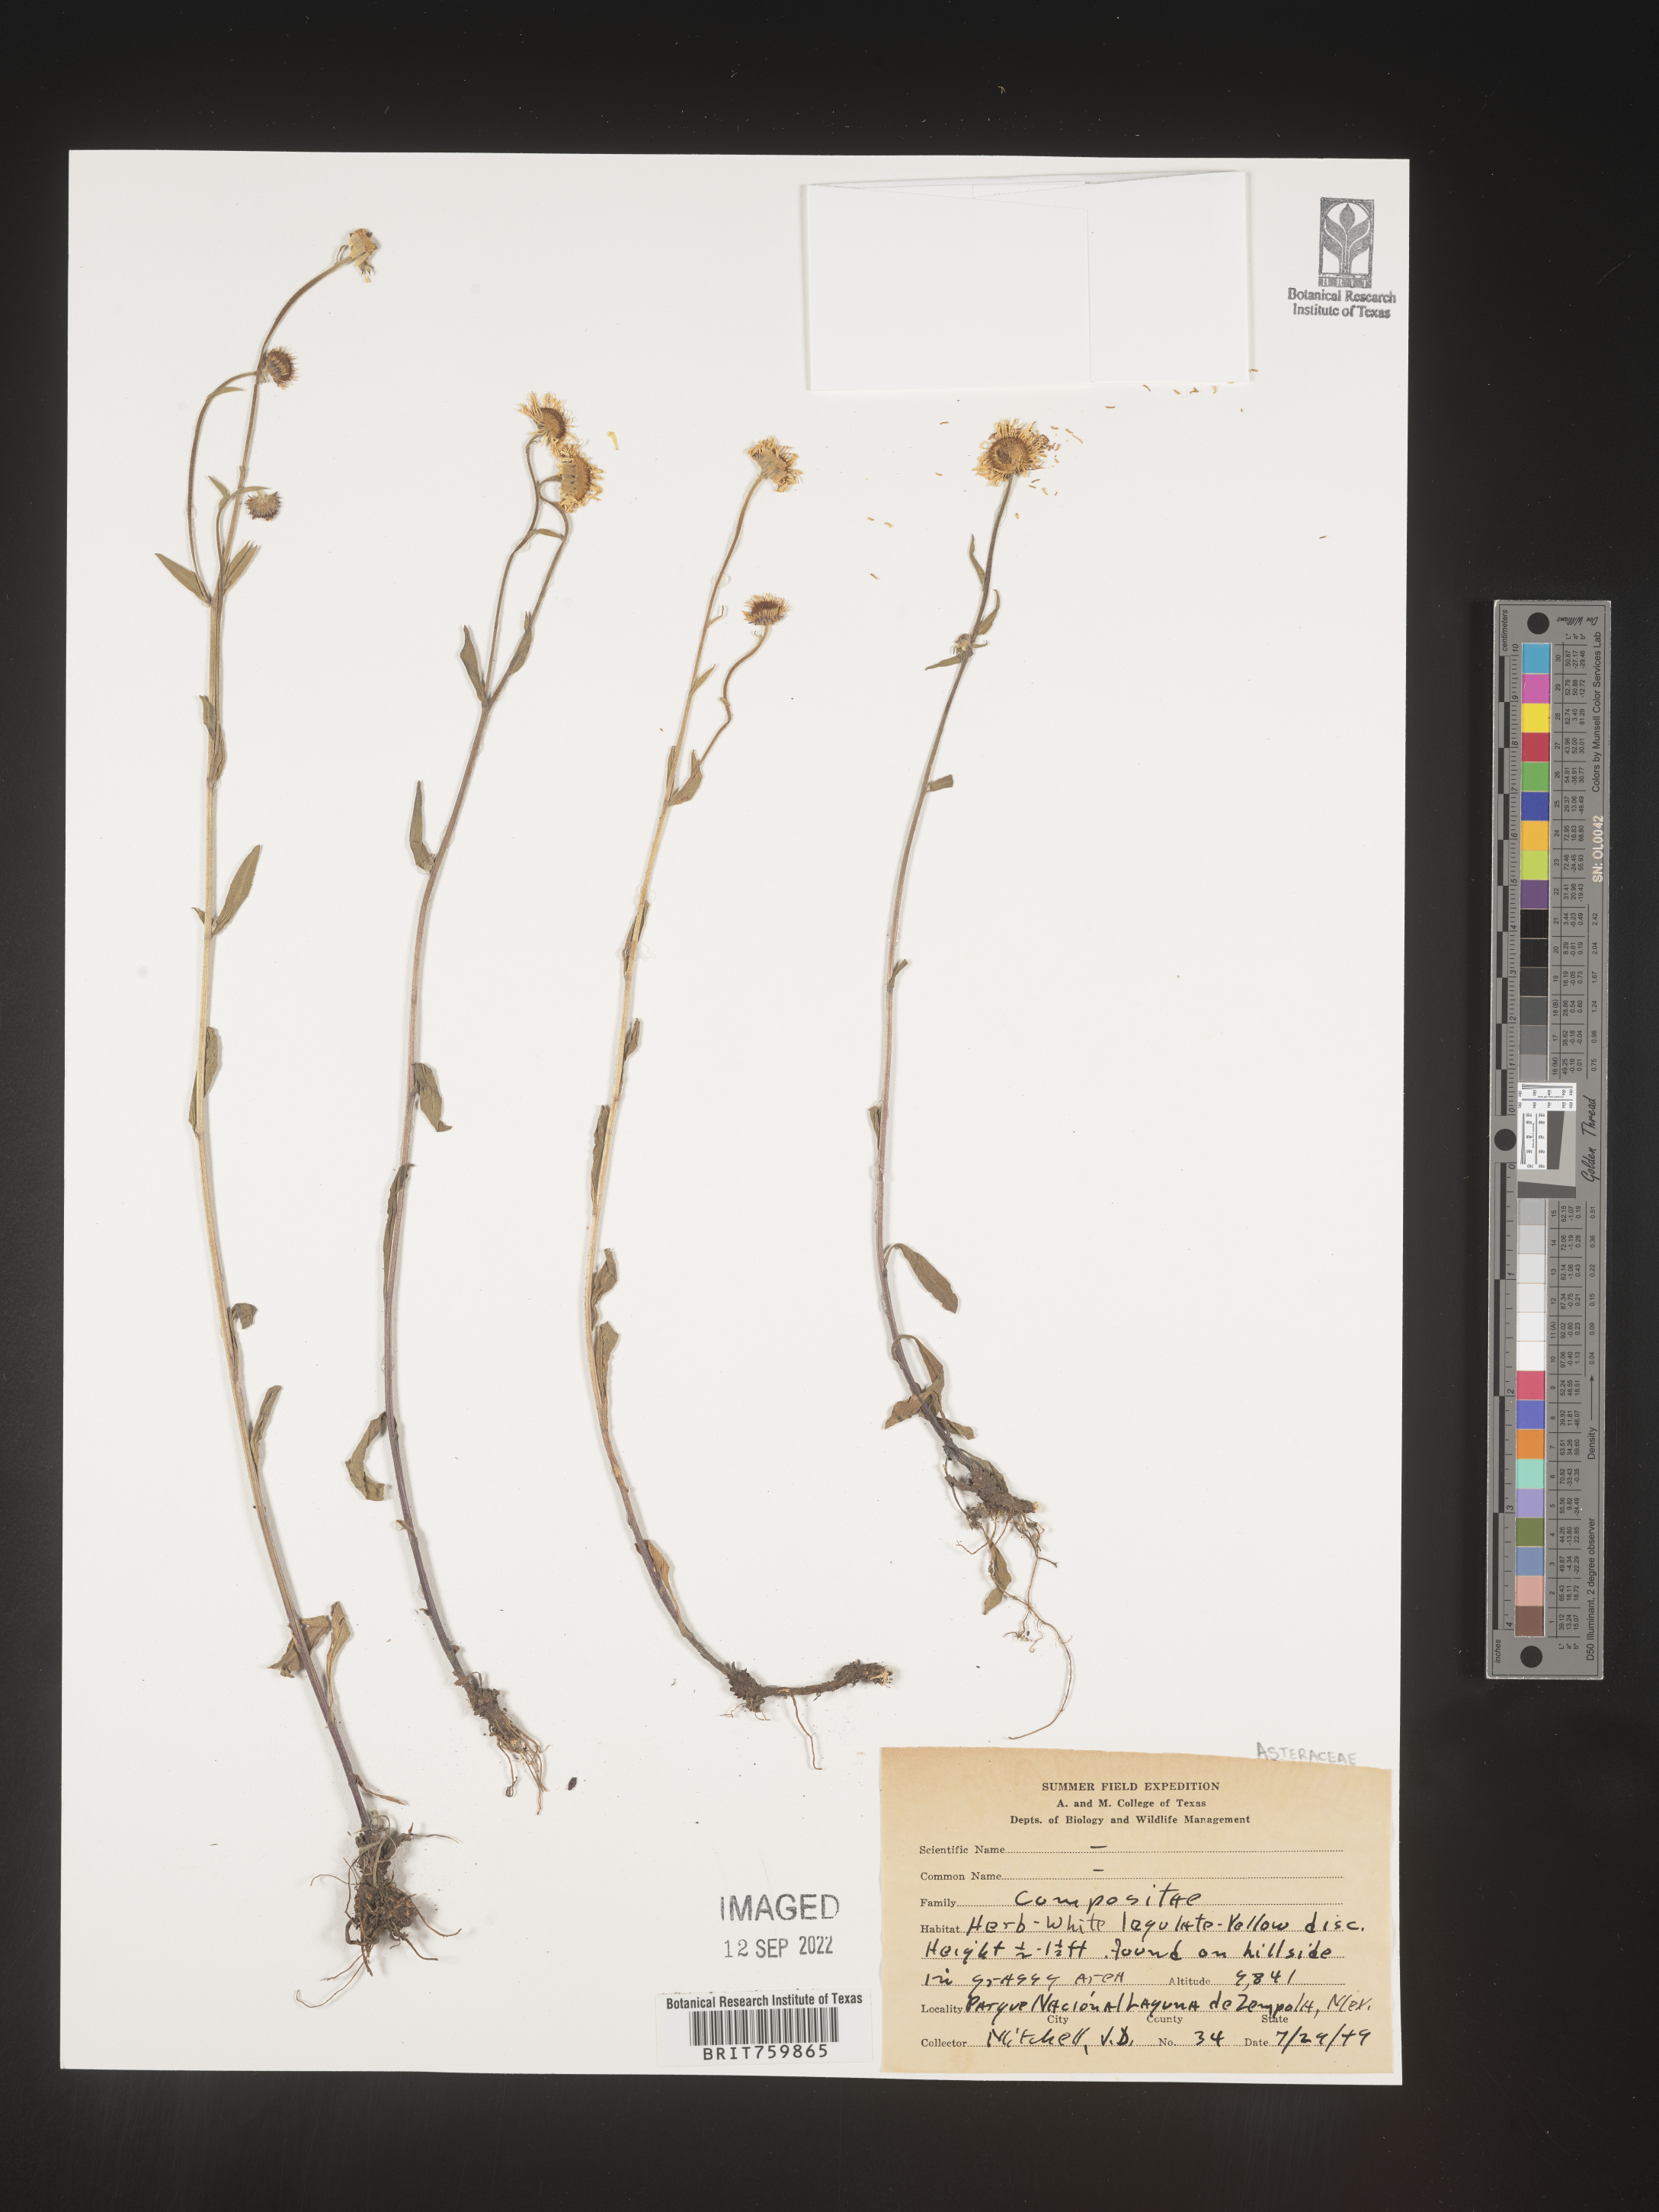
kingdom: Plantae
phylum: Tracheophyta
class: Magnoliopsida
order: Asterales
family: Asteraceae
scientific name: Asteraceae
